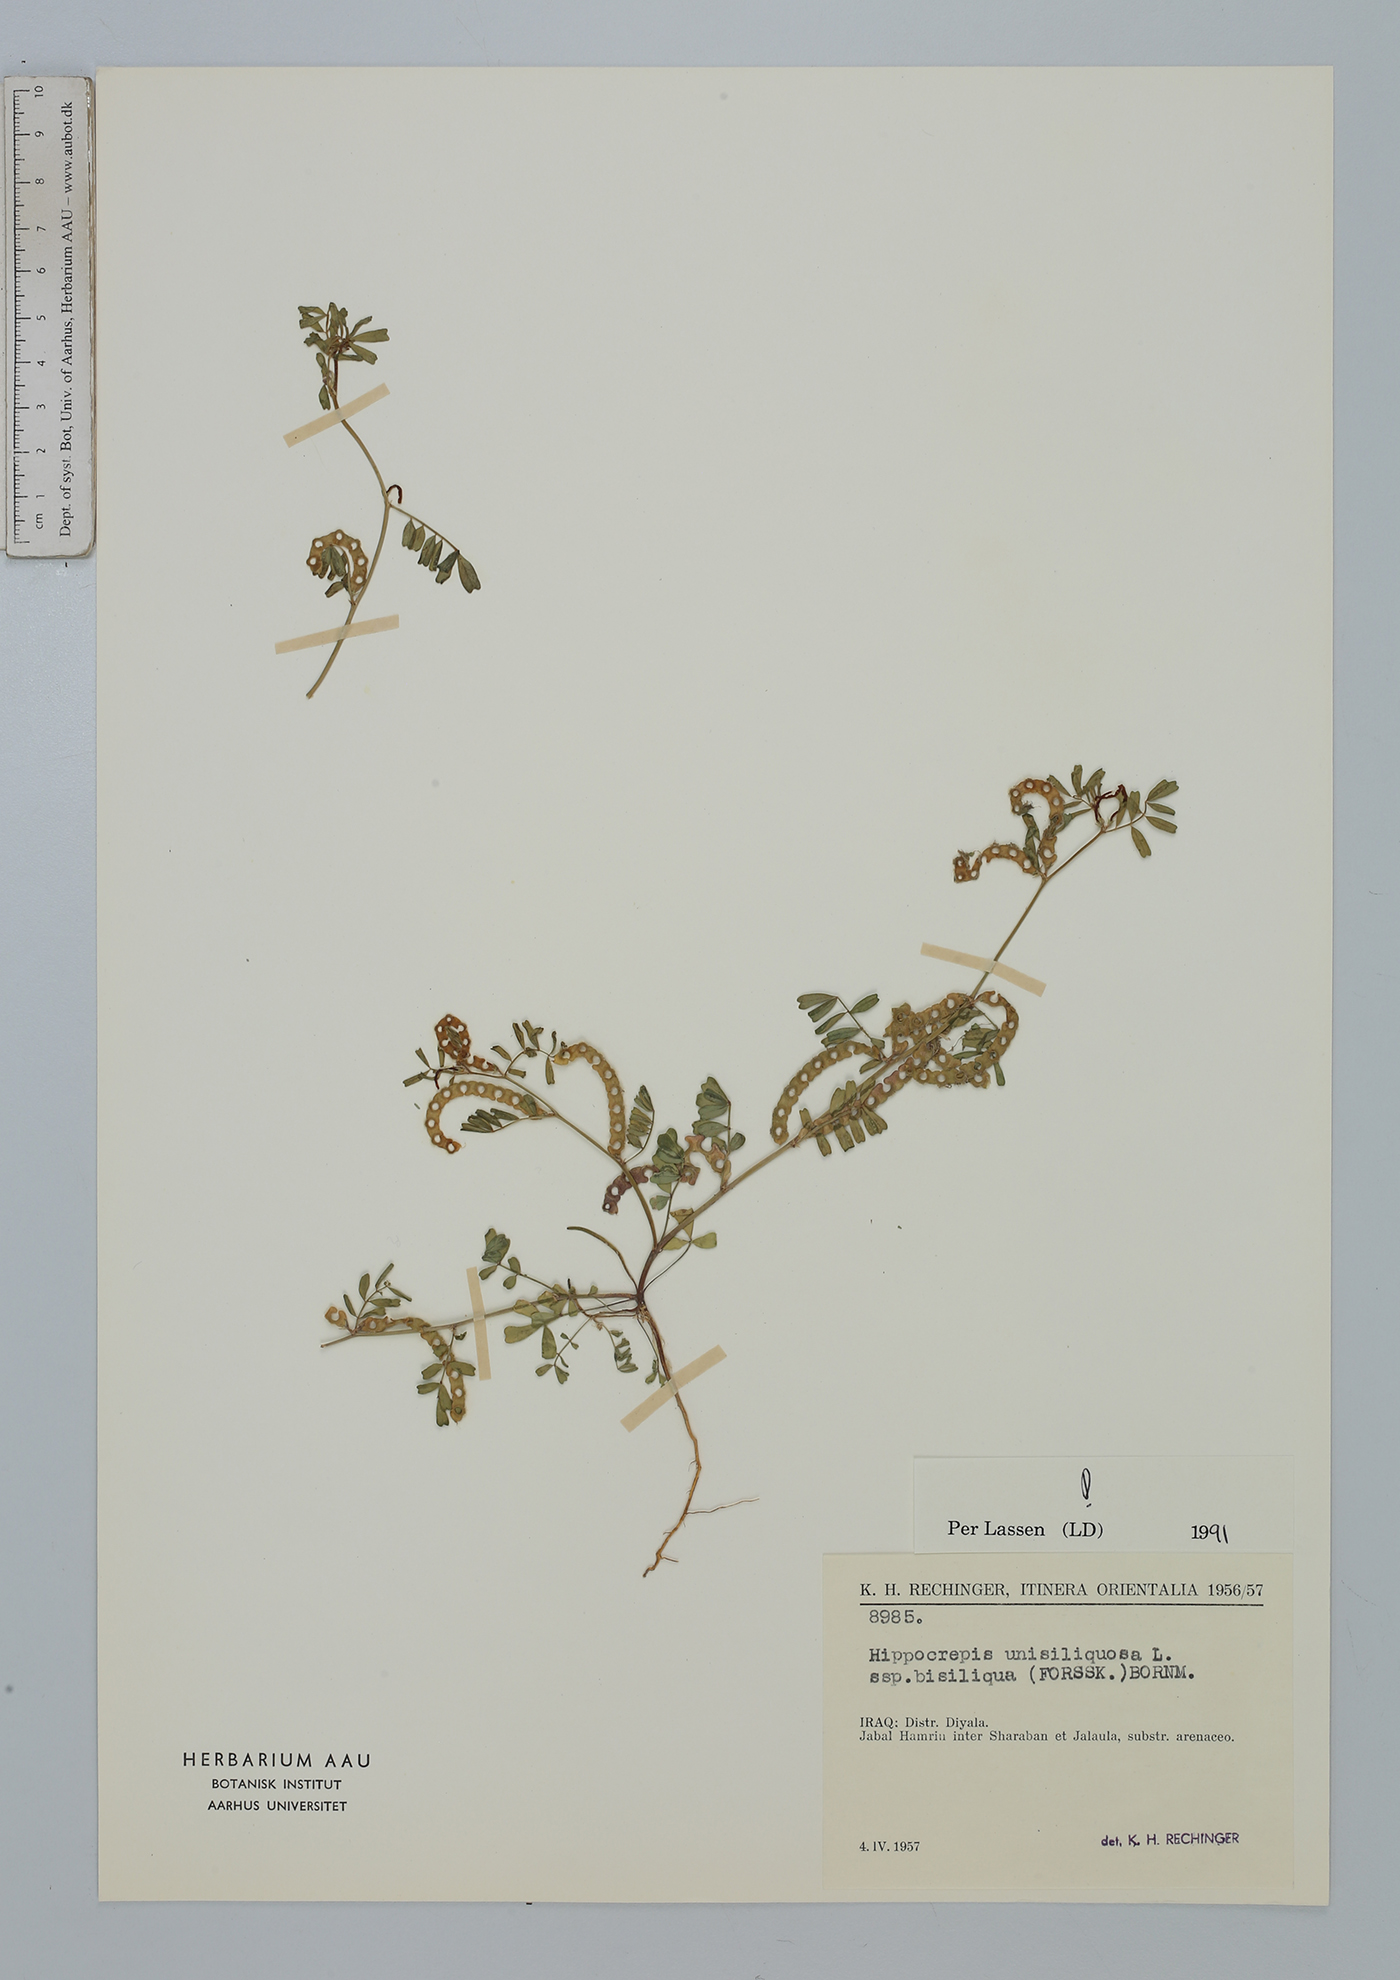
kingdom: Plantae
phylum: Tracheophyta
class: Magnoliopsida
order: Fabales
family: Fabaceae
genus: Hippocrepis
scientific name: Hippocrepis unisiliquosa
